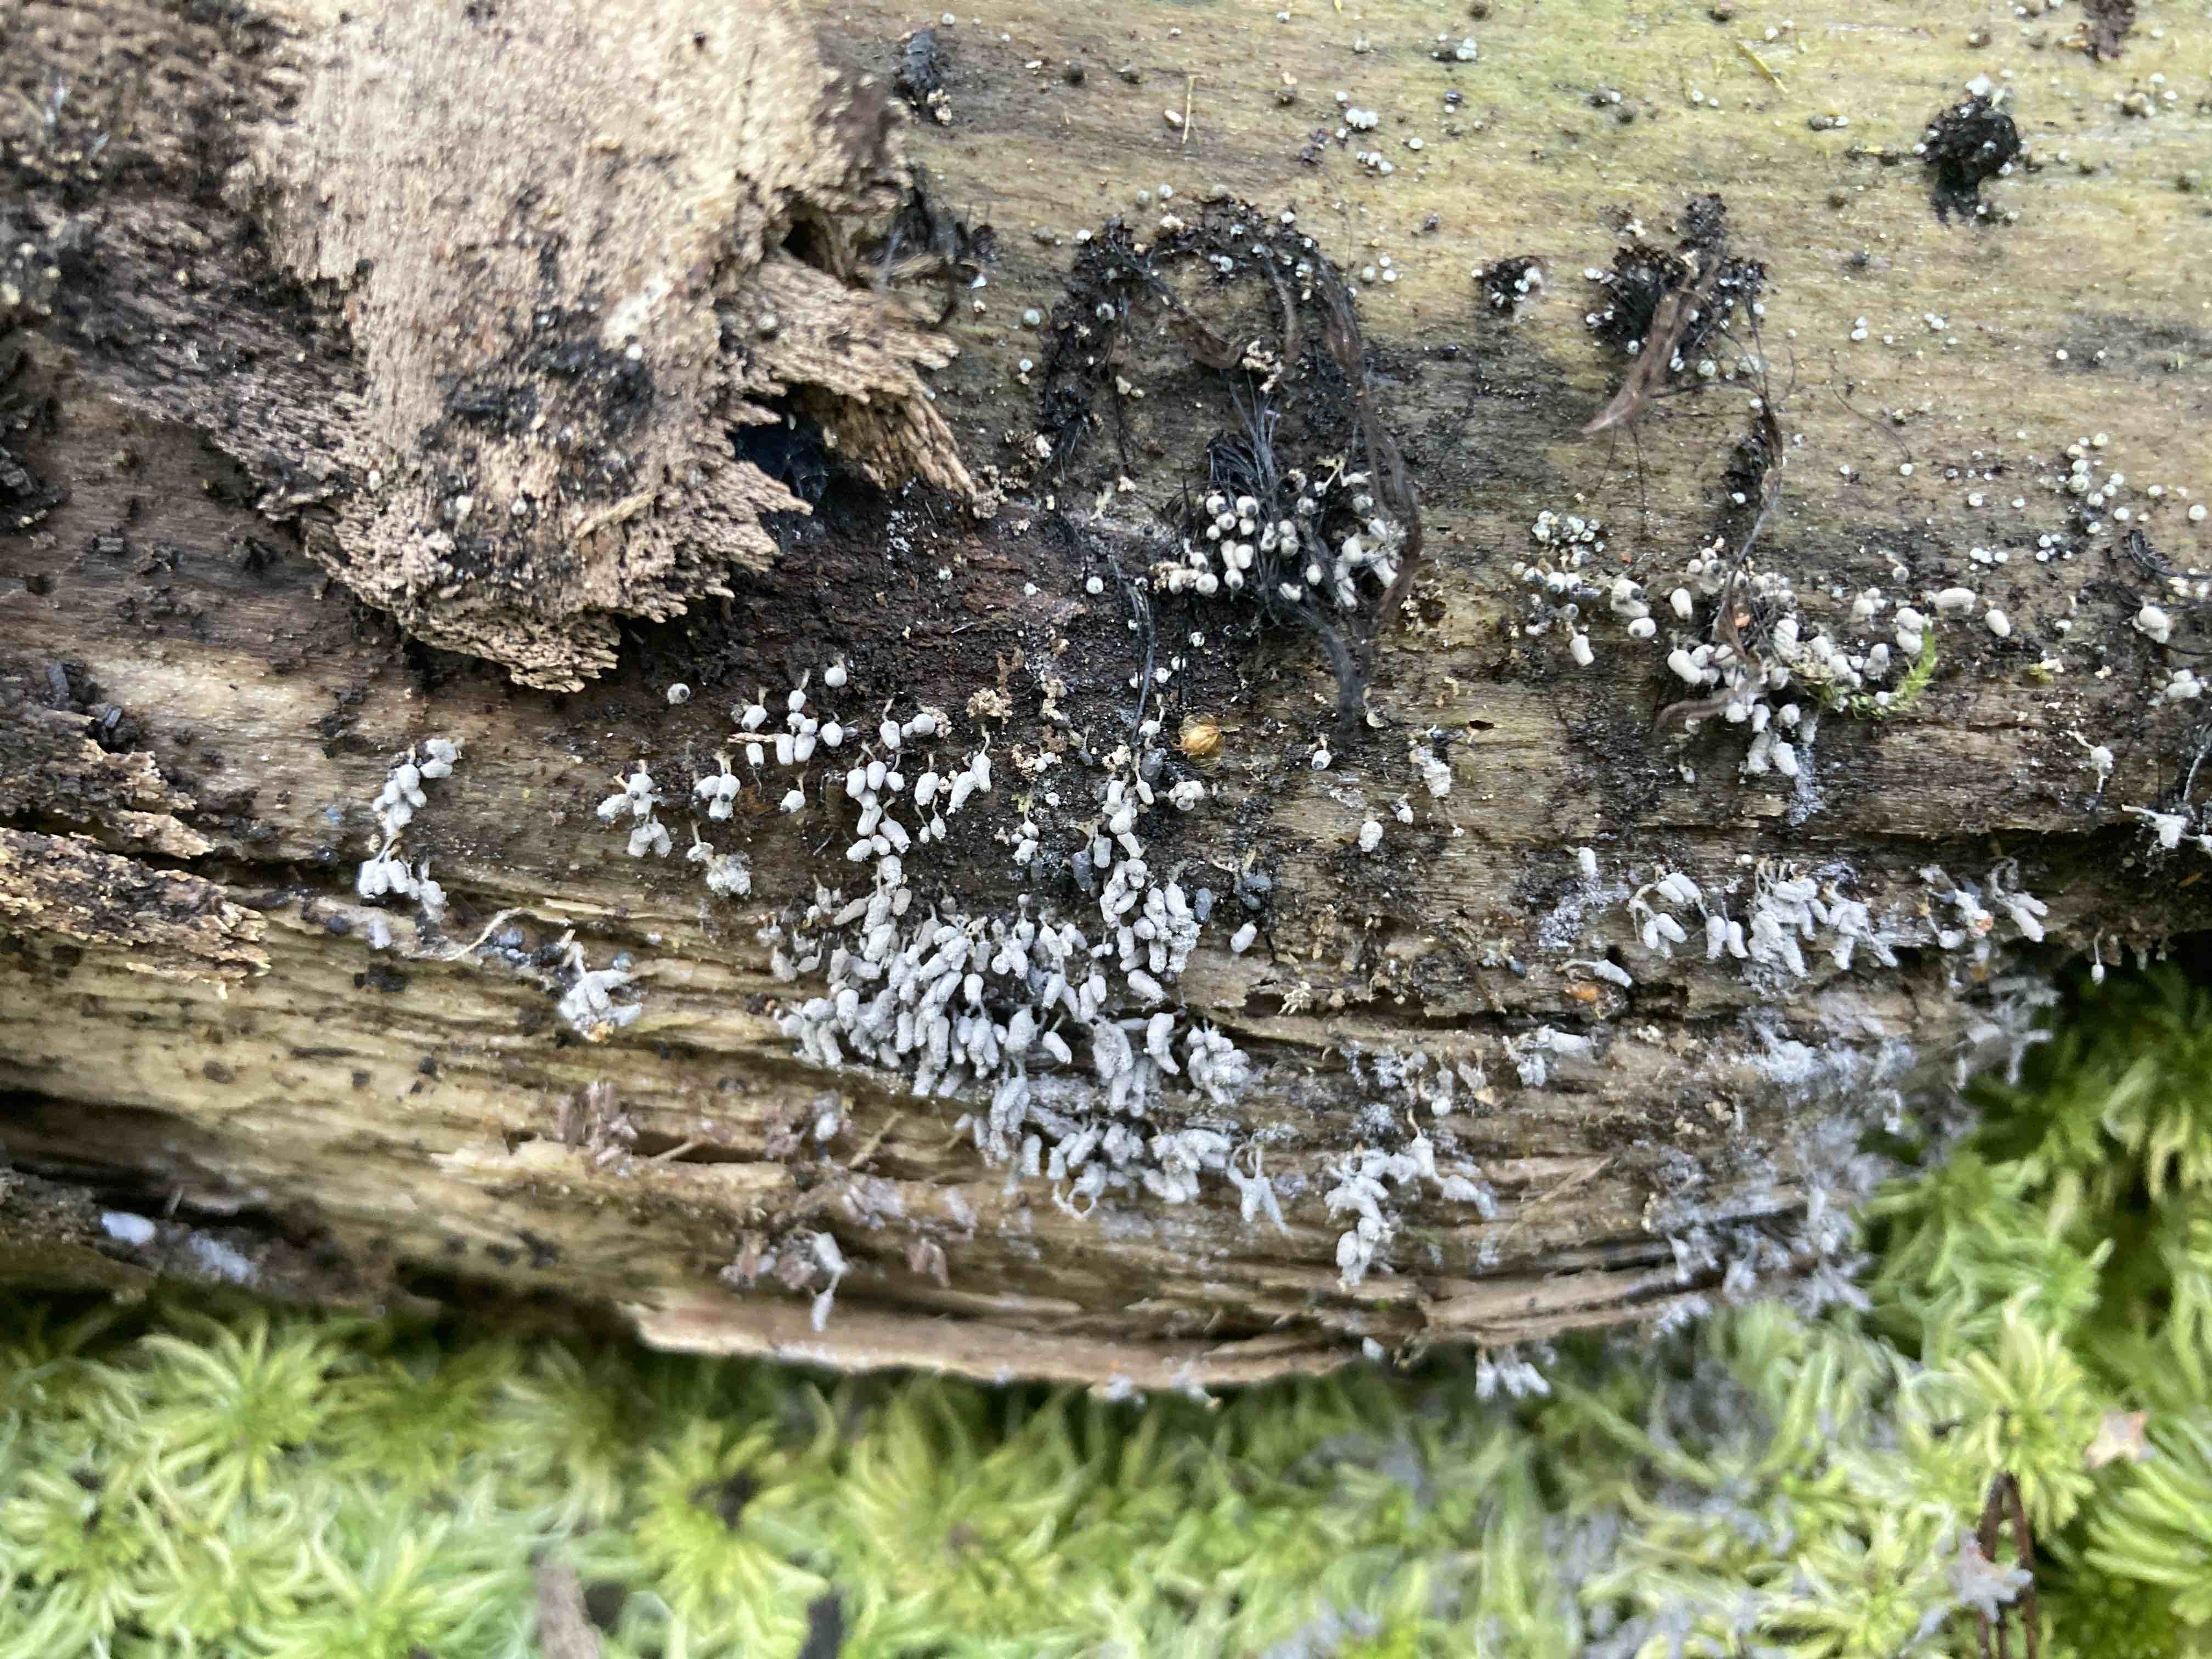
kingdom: Protozoa
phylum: Mycetozoa
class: Myxomycetes
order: Trichiales
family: Arcyriaceae
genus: Arcyria
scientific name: Arcyria cinerea
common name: White carnival candy slime mold
